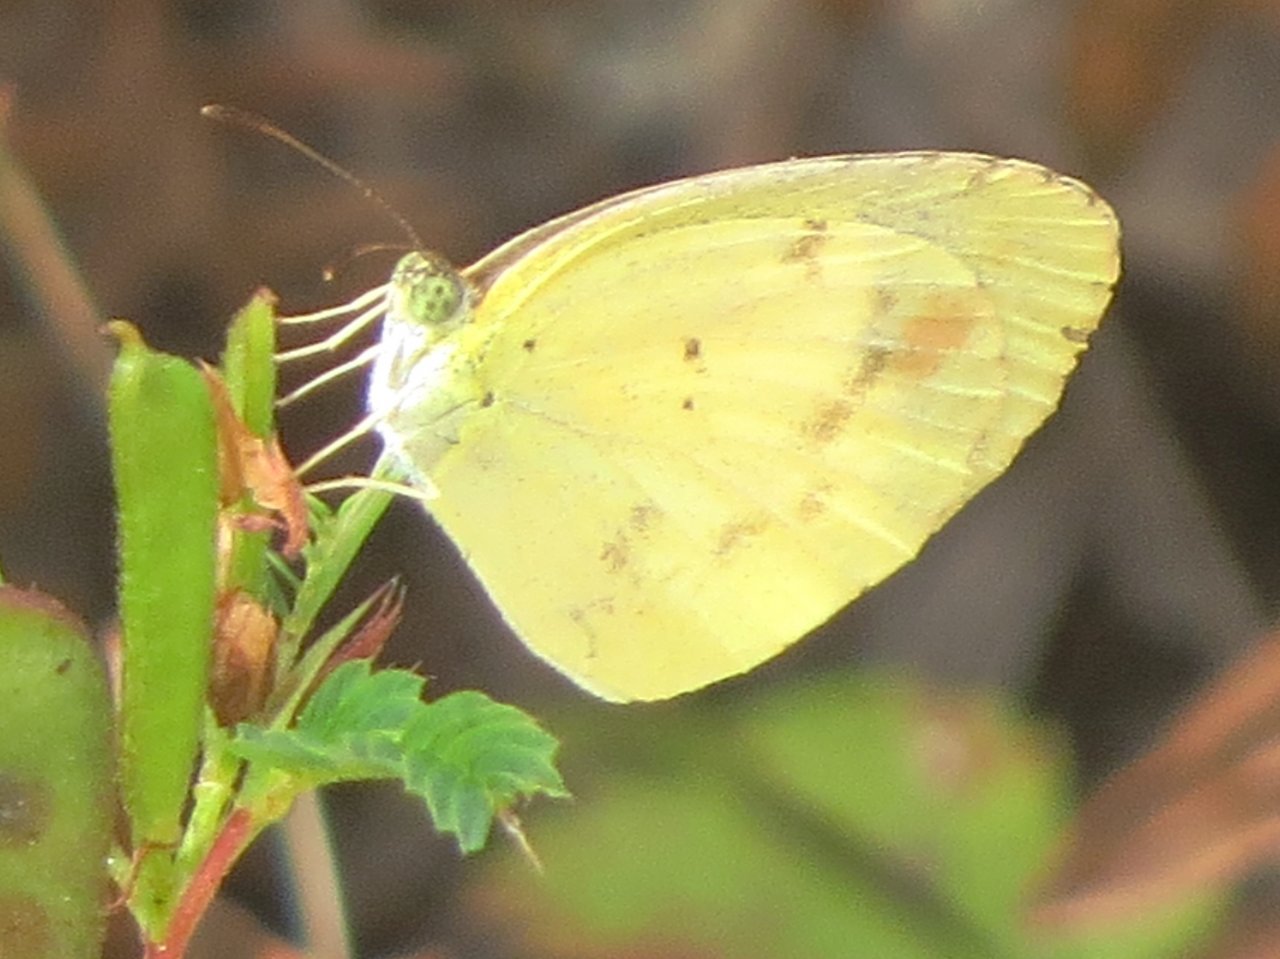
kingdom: Animalia
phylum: Arthropoda
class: Insecta
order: Lepidoptera
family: Pieridae
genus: Pyrisitia
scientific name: Pyrisitia lisa
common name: Little Yellow
